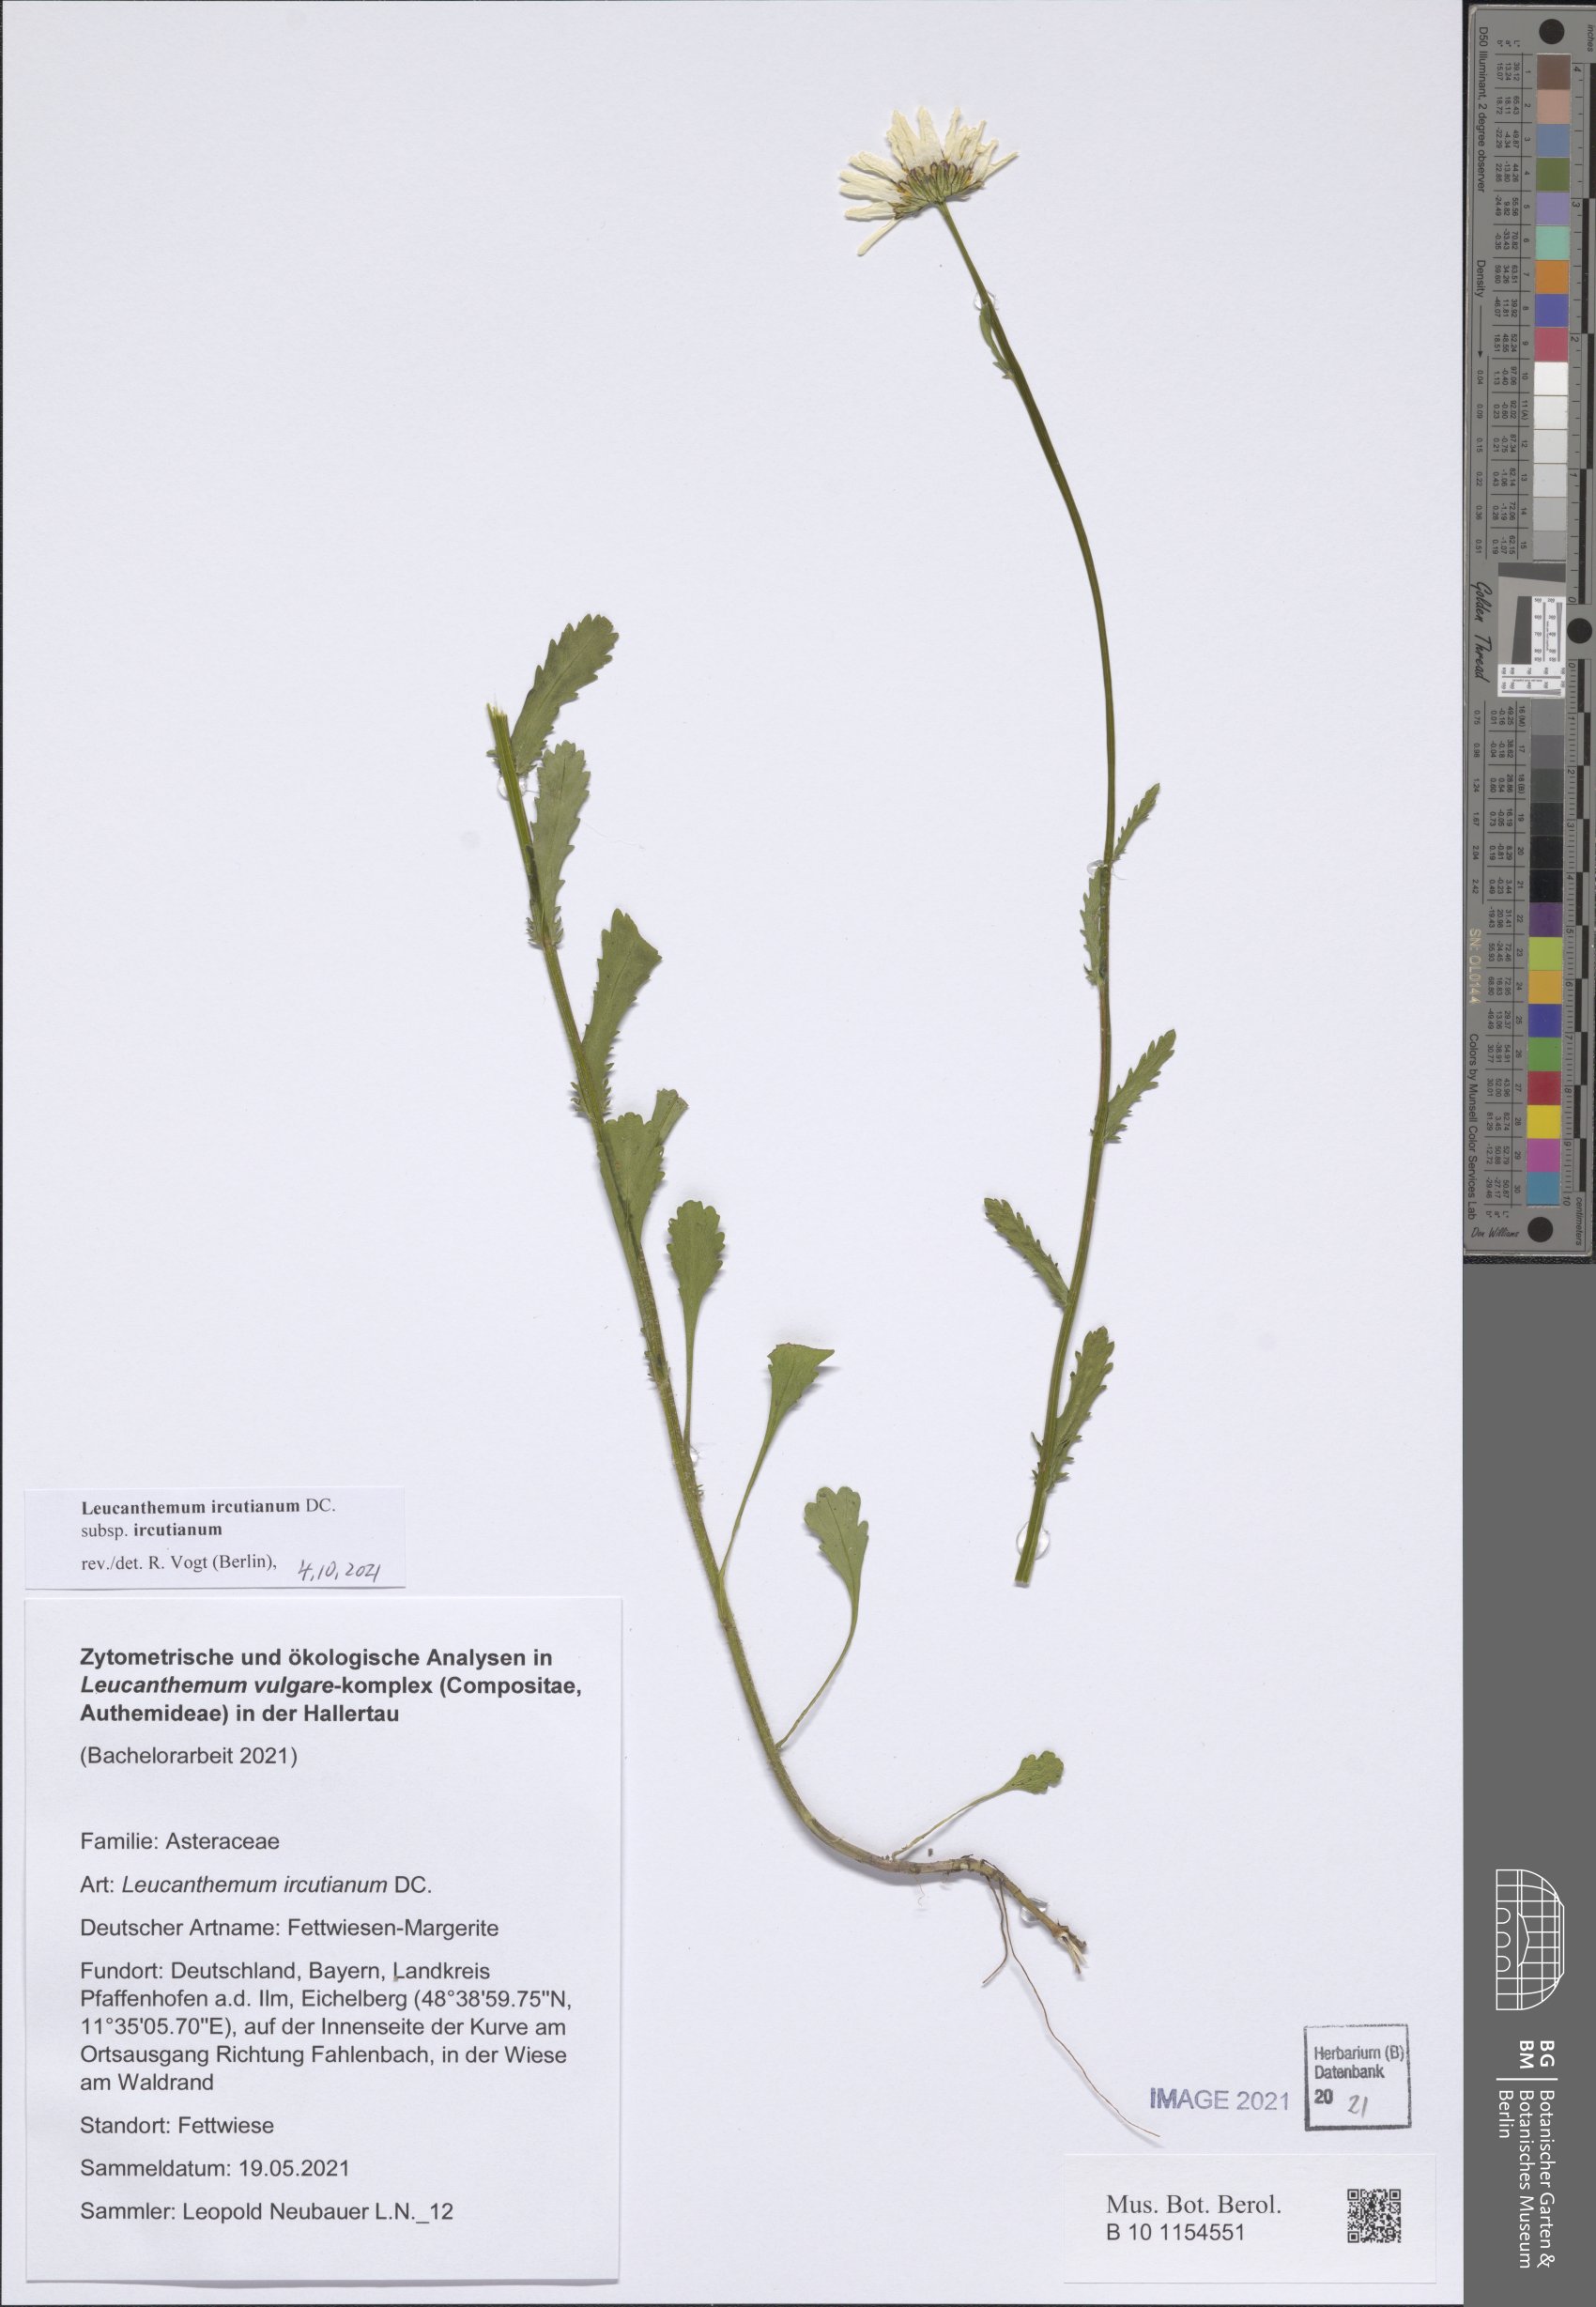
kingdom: Plantae
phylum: Tracheophyta
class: Magnoliopsida
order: Asterales
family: Asteraceae
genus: Leucanthemum
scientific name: Leucanthemum ircutianum
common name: Daisy
